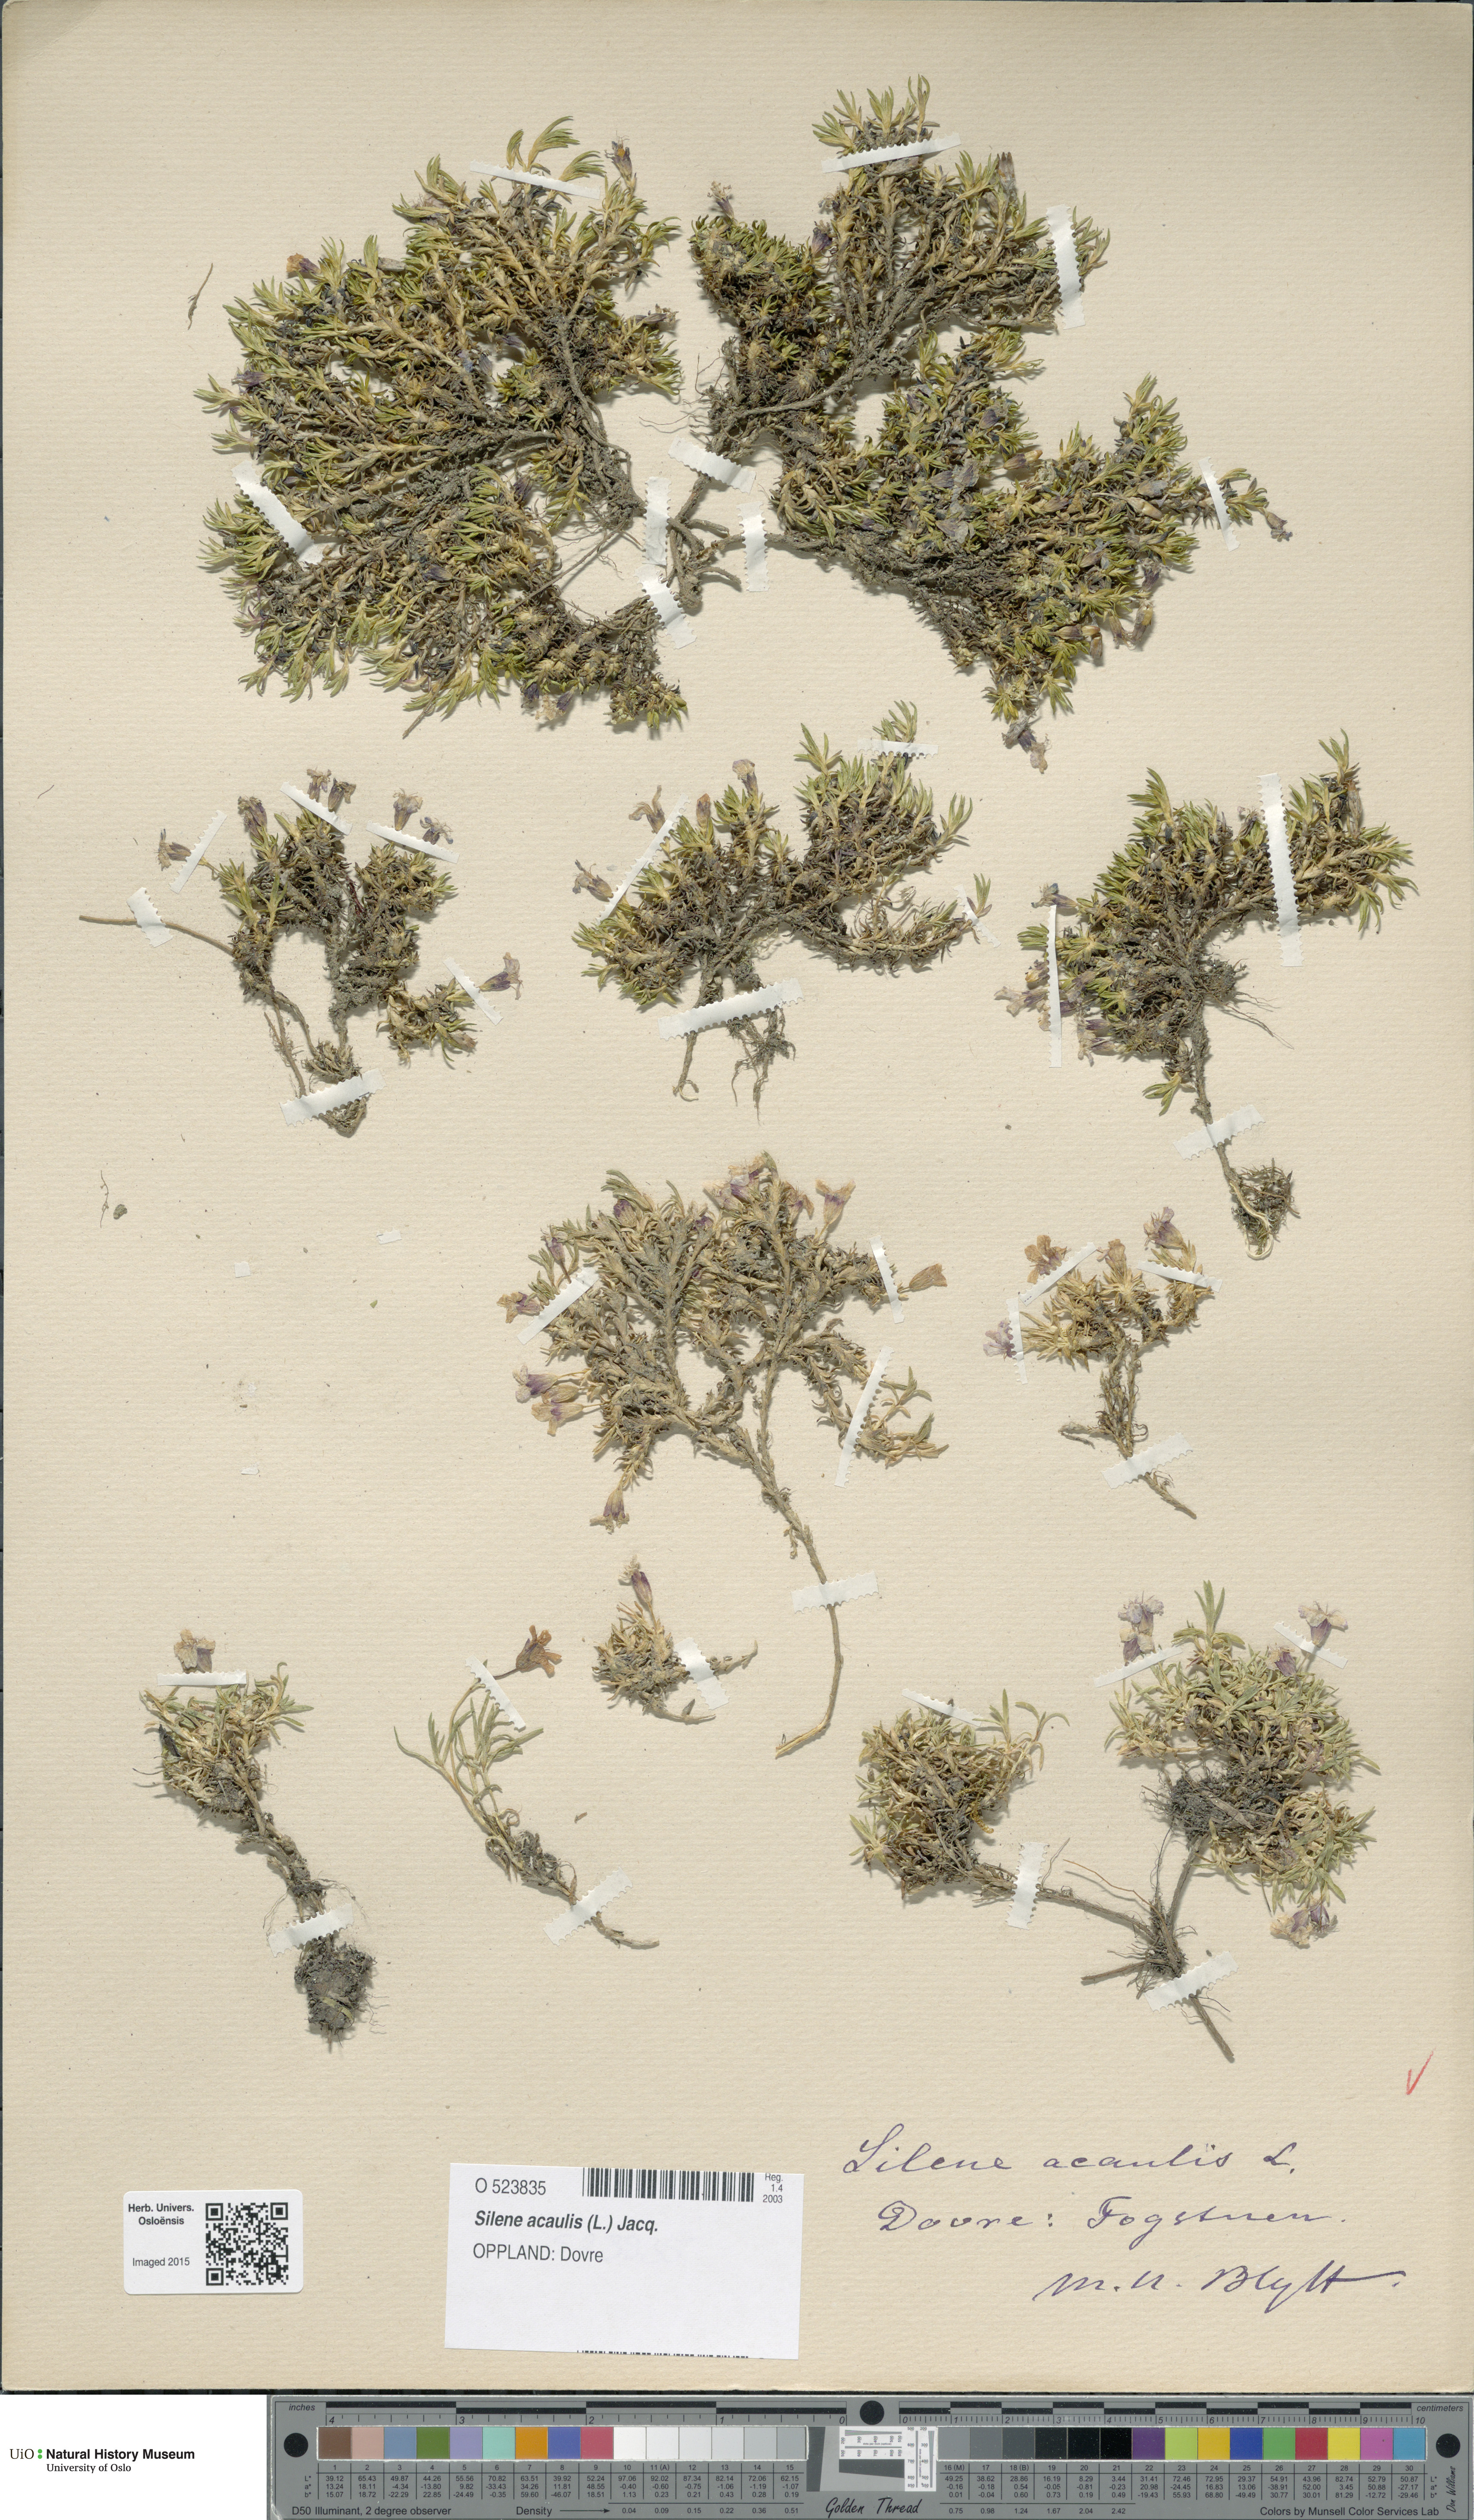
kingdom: Plantae
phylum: Tracheophyta
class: Magnoliopsida
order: Caryophyllales
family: Caryophyllaceae
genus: Silene
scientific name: Silene acaulis
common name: Moss campion
